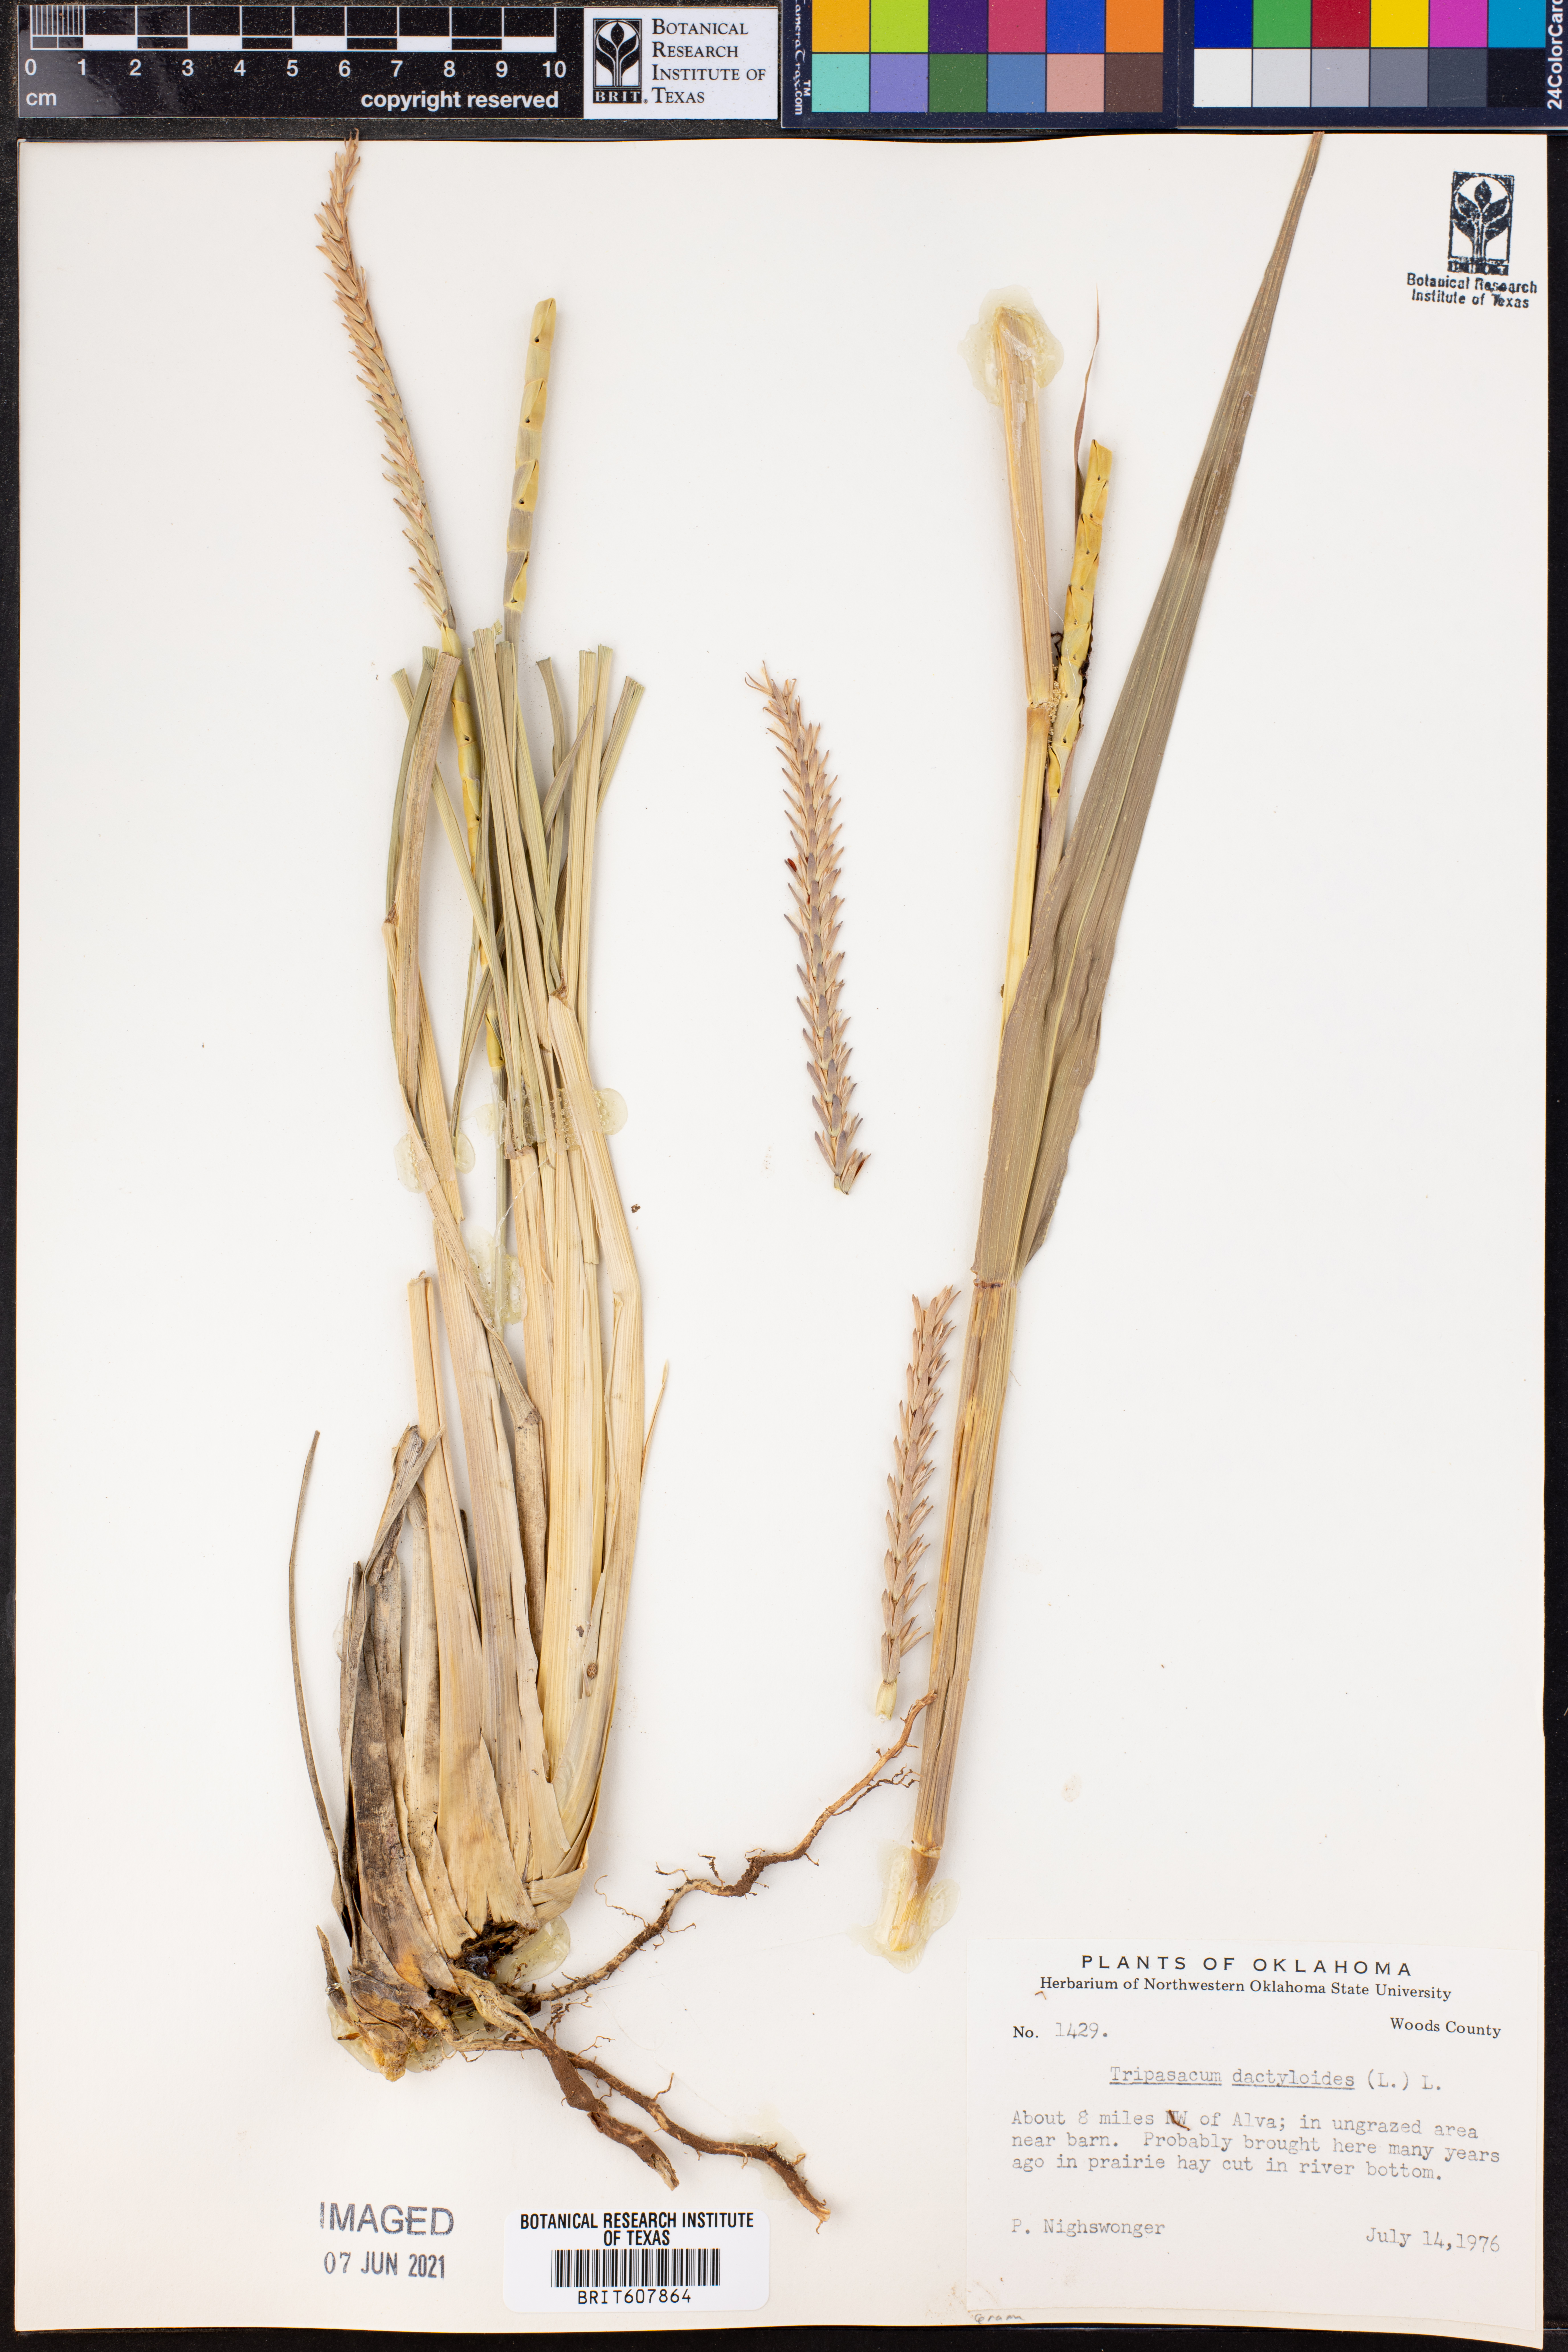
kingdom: Plantae
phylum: Tracheophyta
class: Liliopsida
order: Poales
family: Poaceae
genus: Tripsacum
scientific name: Tripsacum dactyloides
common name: Buffalo-grass
